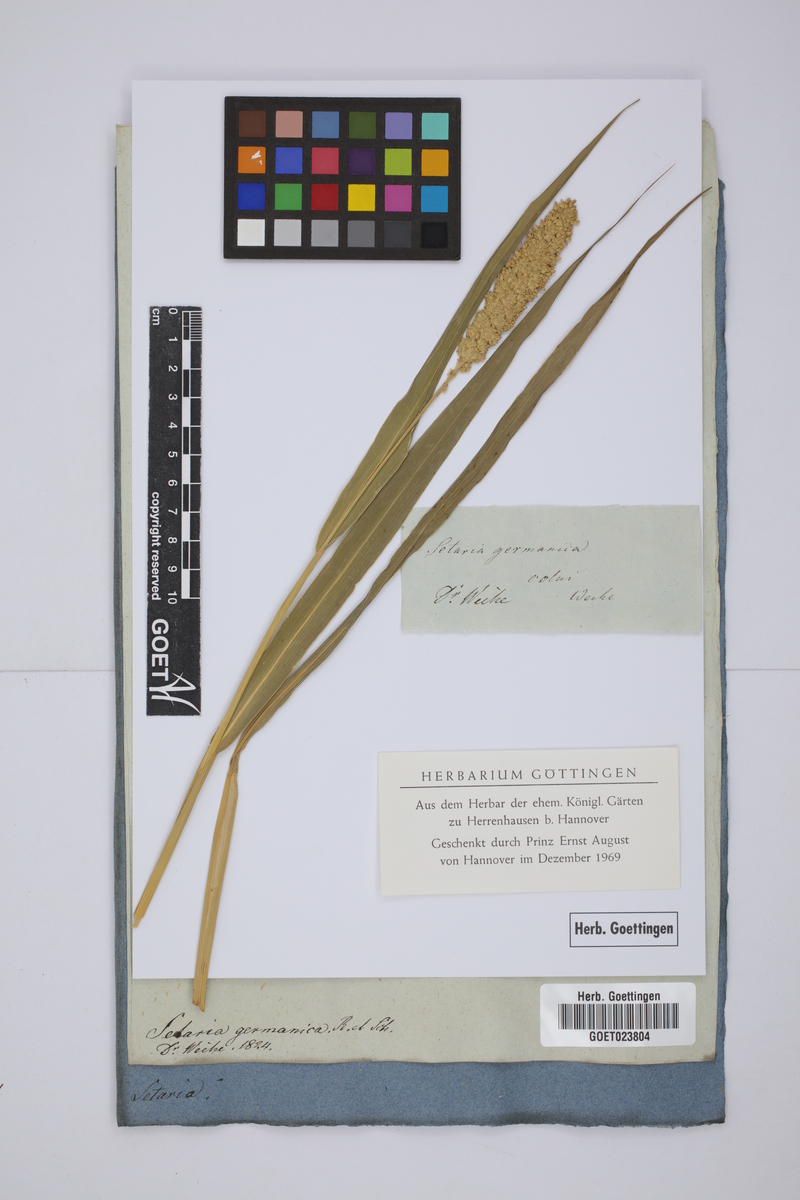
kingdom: Plantae
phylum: Tracheophyta
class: Liliopsida
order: Poales
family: Poaceae
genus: Setaria
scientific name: Setaria italica
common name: Foxtail bristle-grass
